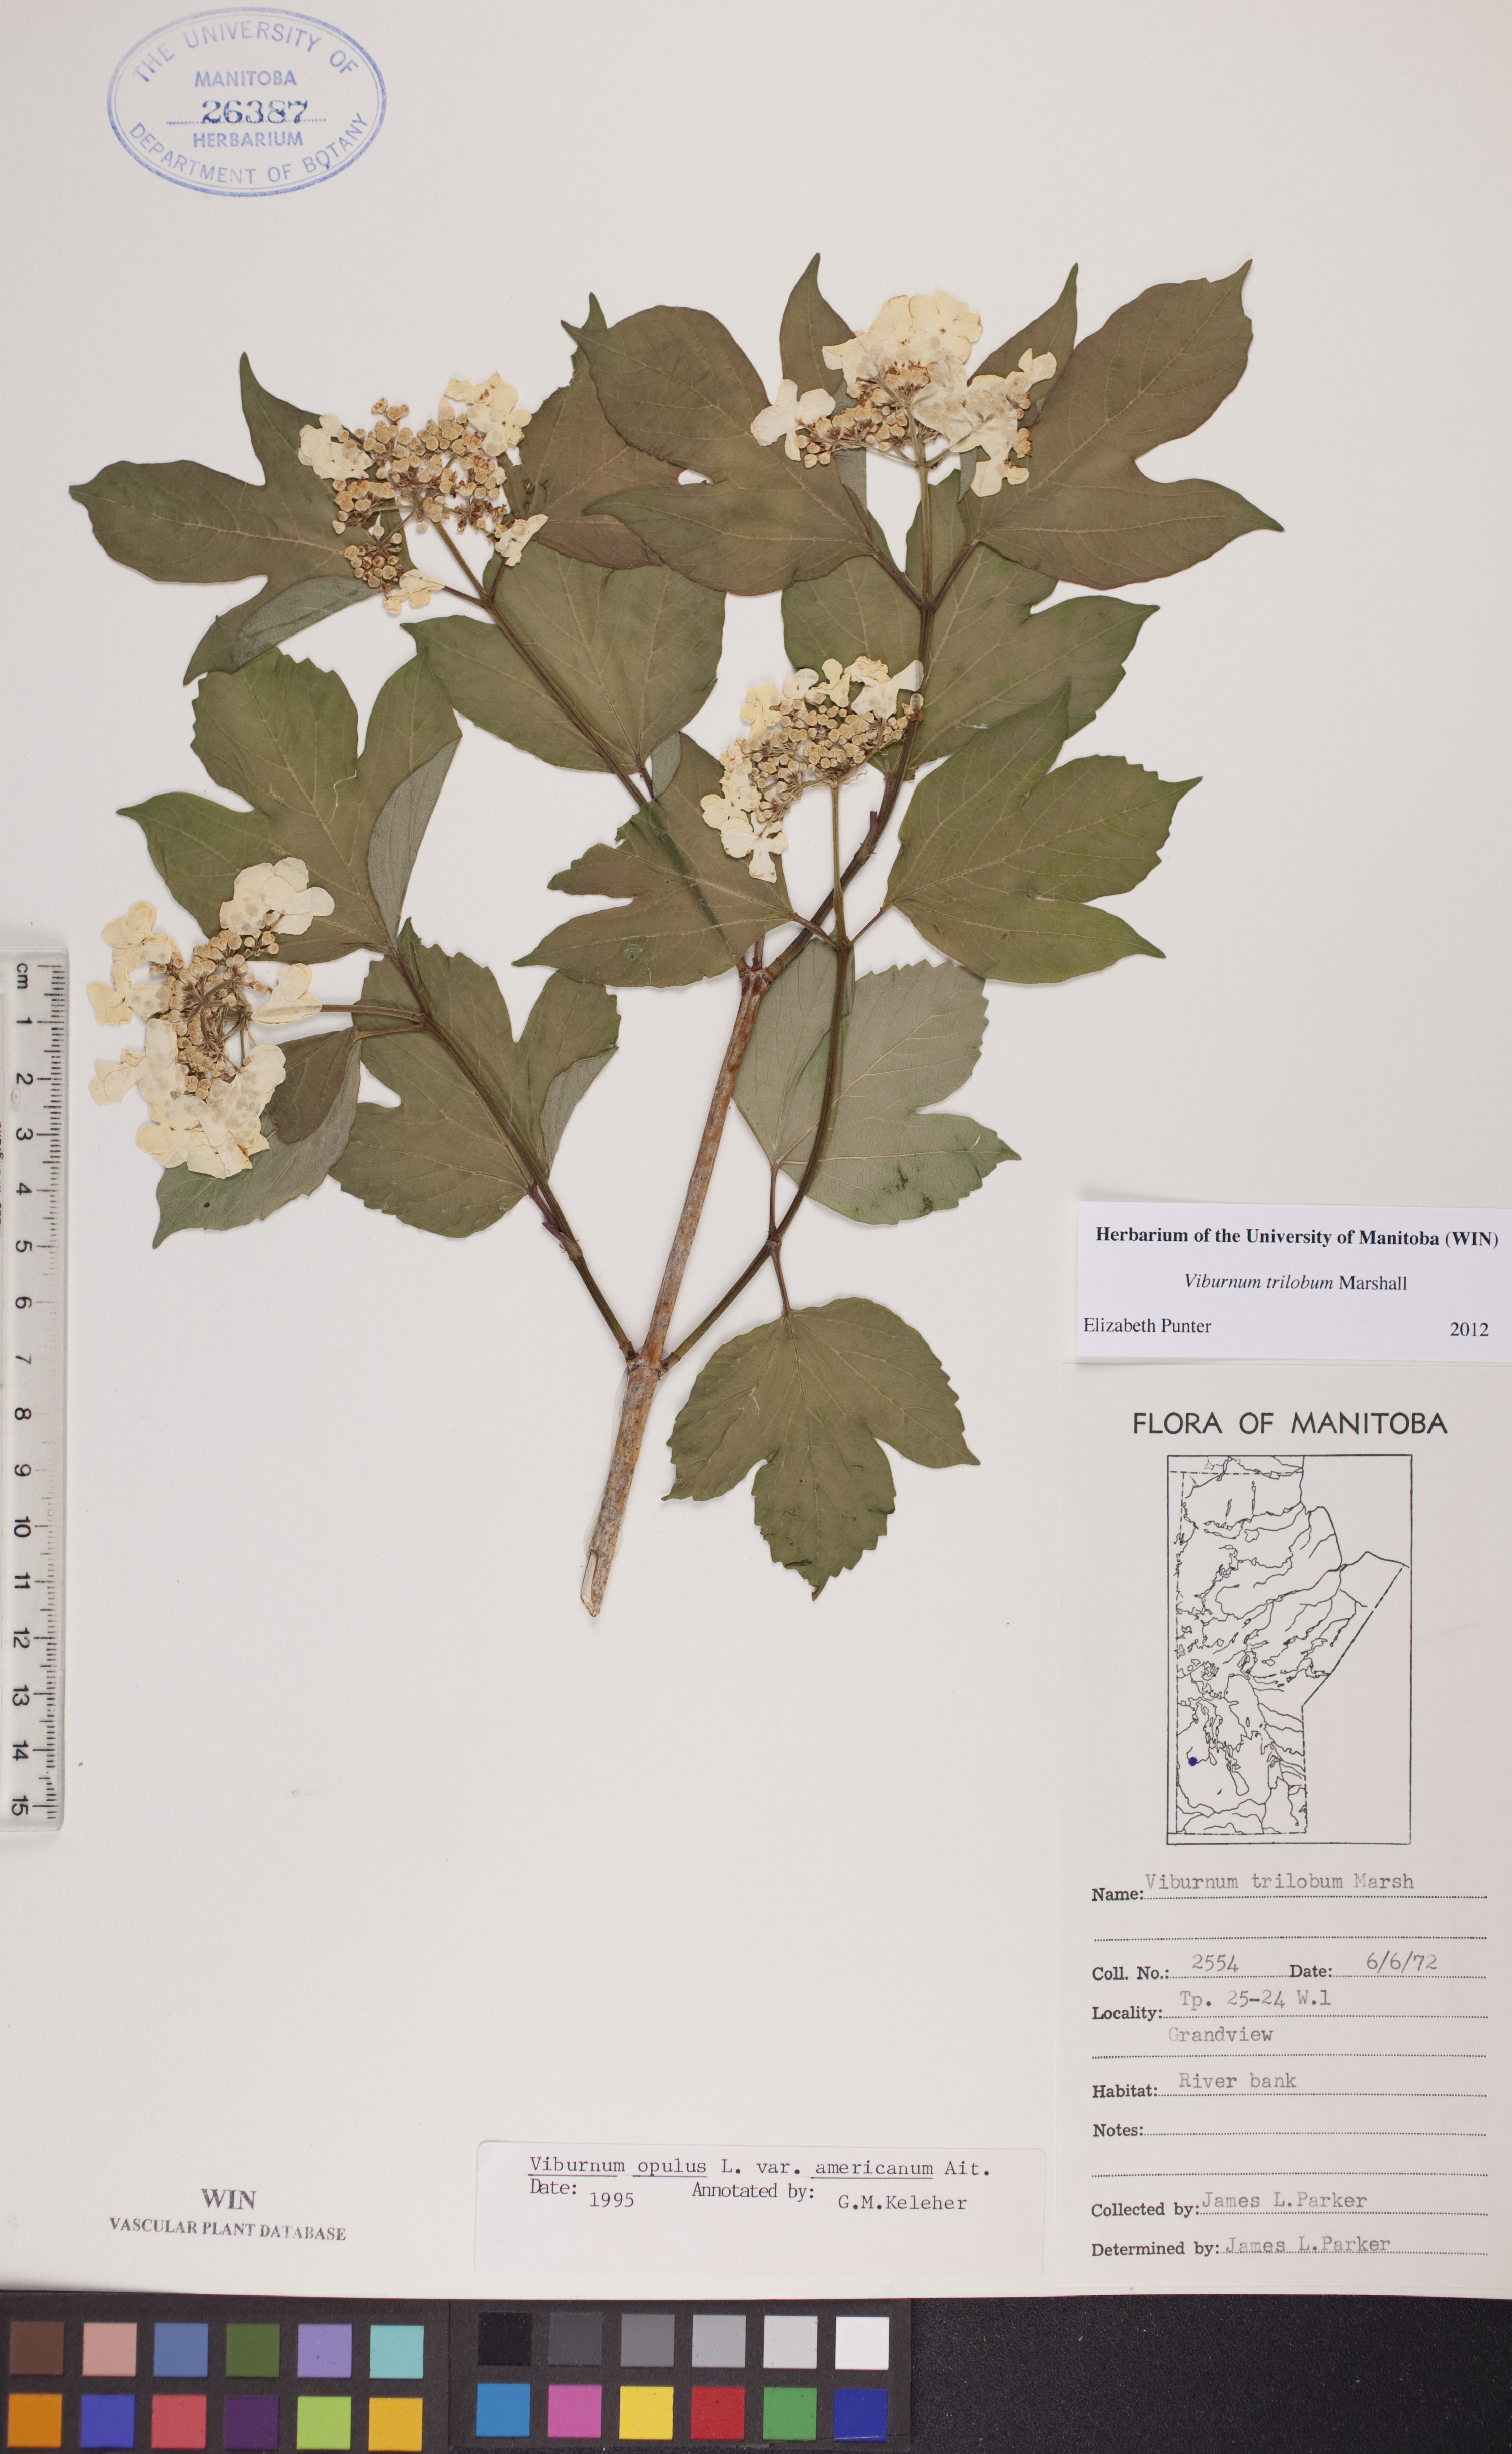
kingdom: Plantae
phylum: Tracheophyta
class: Magnoliopsida
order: Dipsacales
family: Viburnaceae
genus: Viburnum
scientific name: Viburnum trilobum
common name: American cranberrybush
